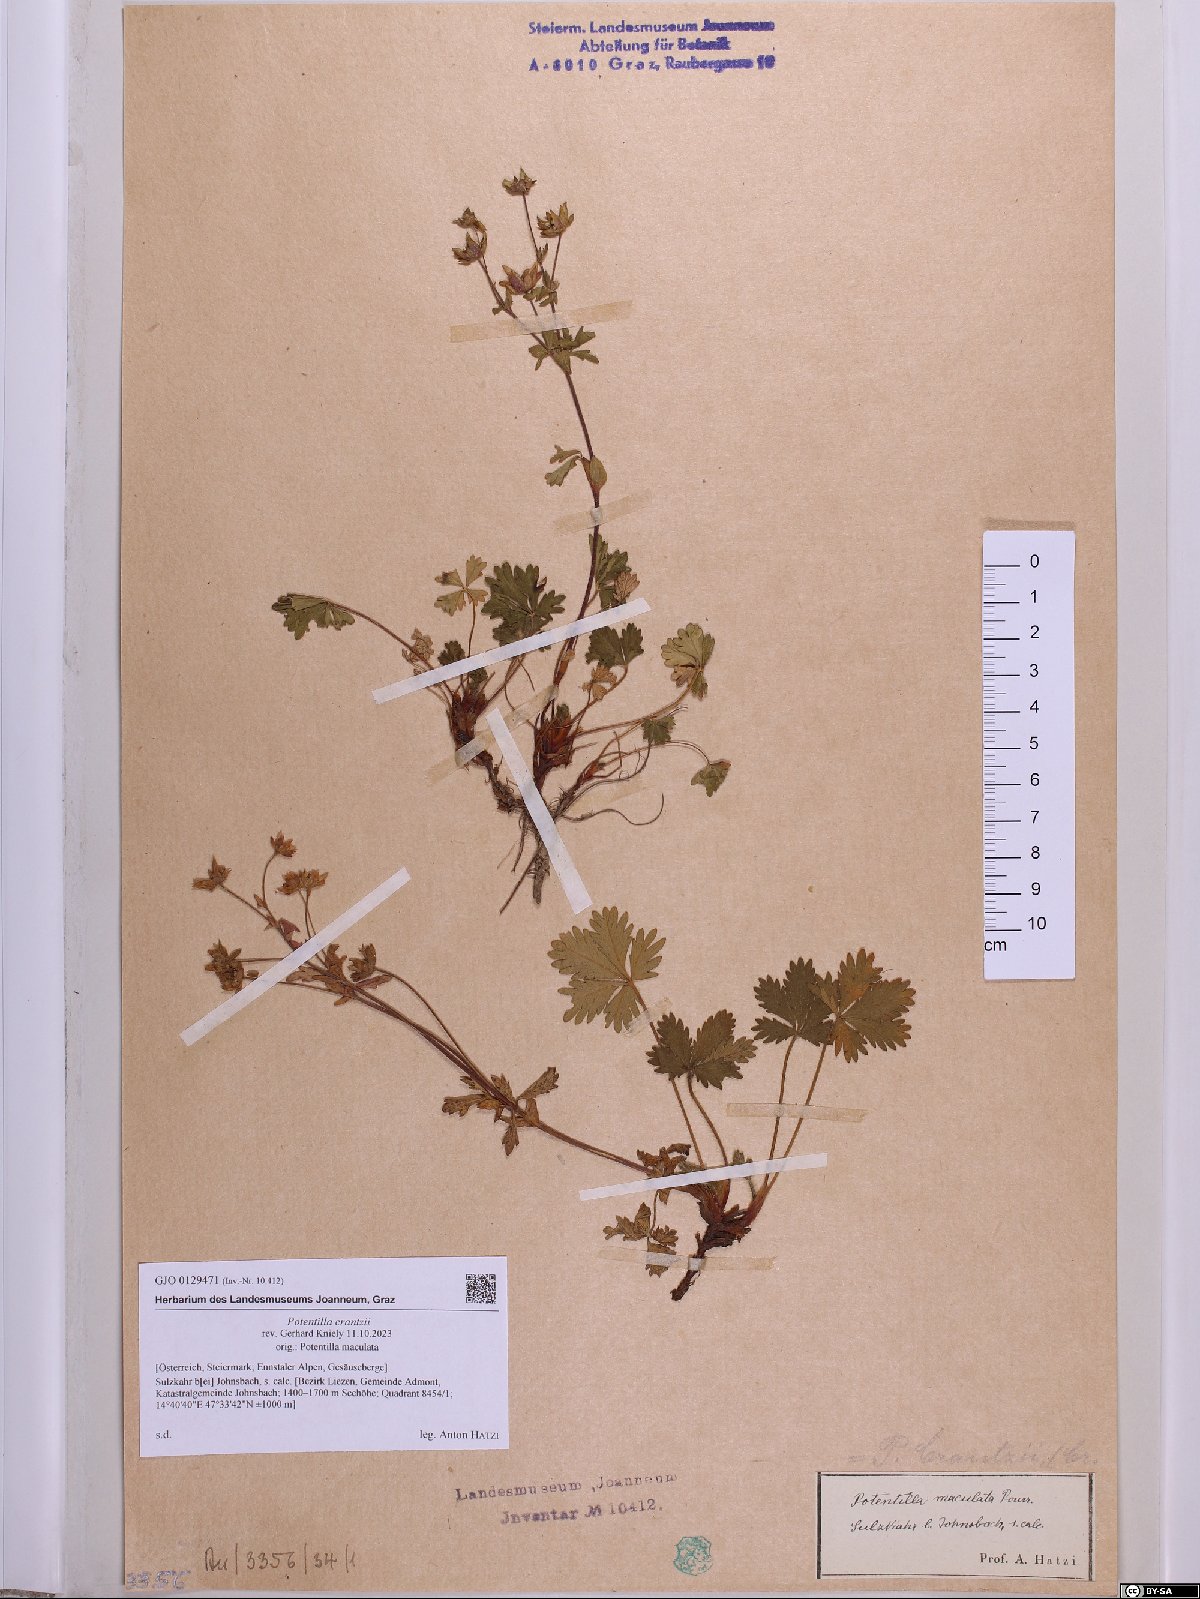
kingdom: Plantae
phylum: Tracheophyta
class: Magnoliopsida
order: Rosales
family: Rosaceae
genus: Potentilla
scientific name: Potentilla crantzii
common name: Alpine cinquefoil
